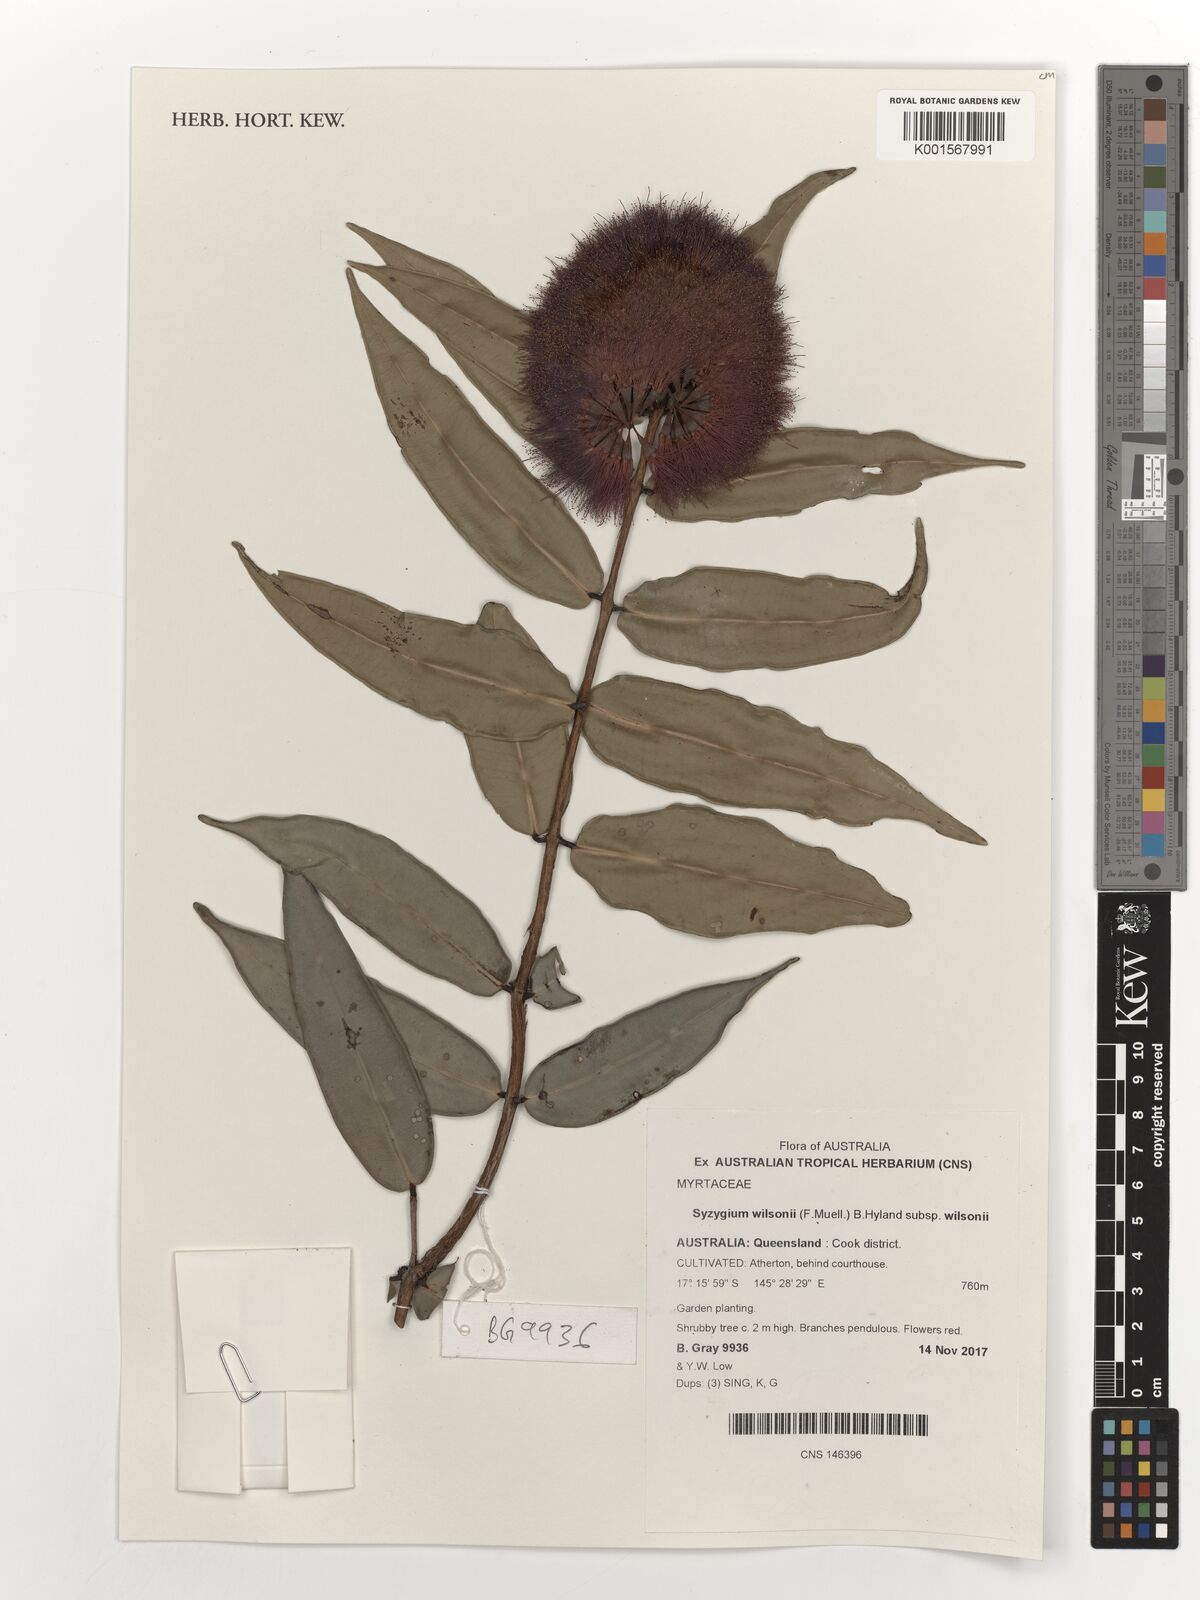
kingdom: Plantae
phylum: Tracheophyta
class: Magnoliopsida
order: Myrtales
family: Myrtaceae
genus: Syzygium
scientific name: Syzygium wilsonii
